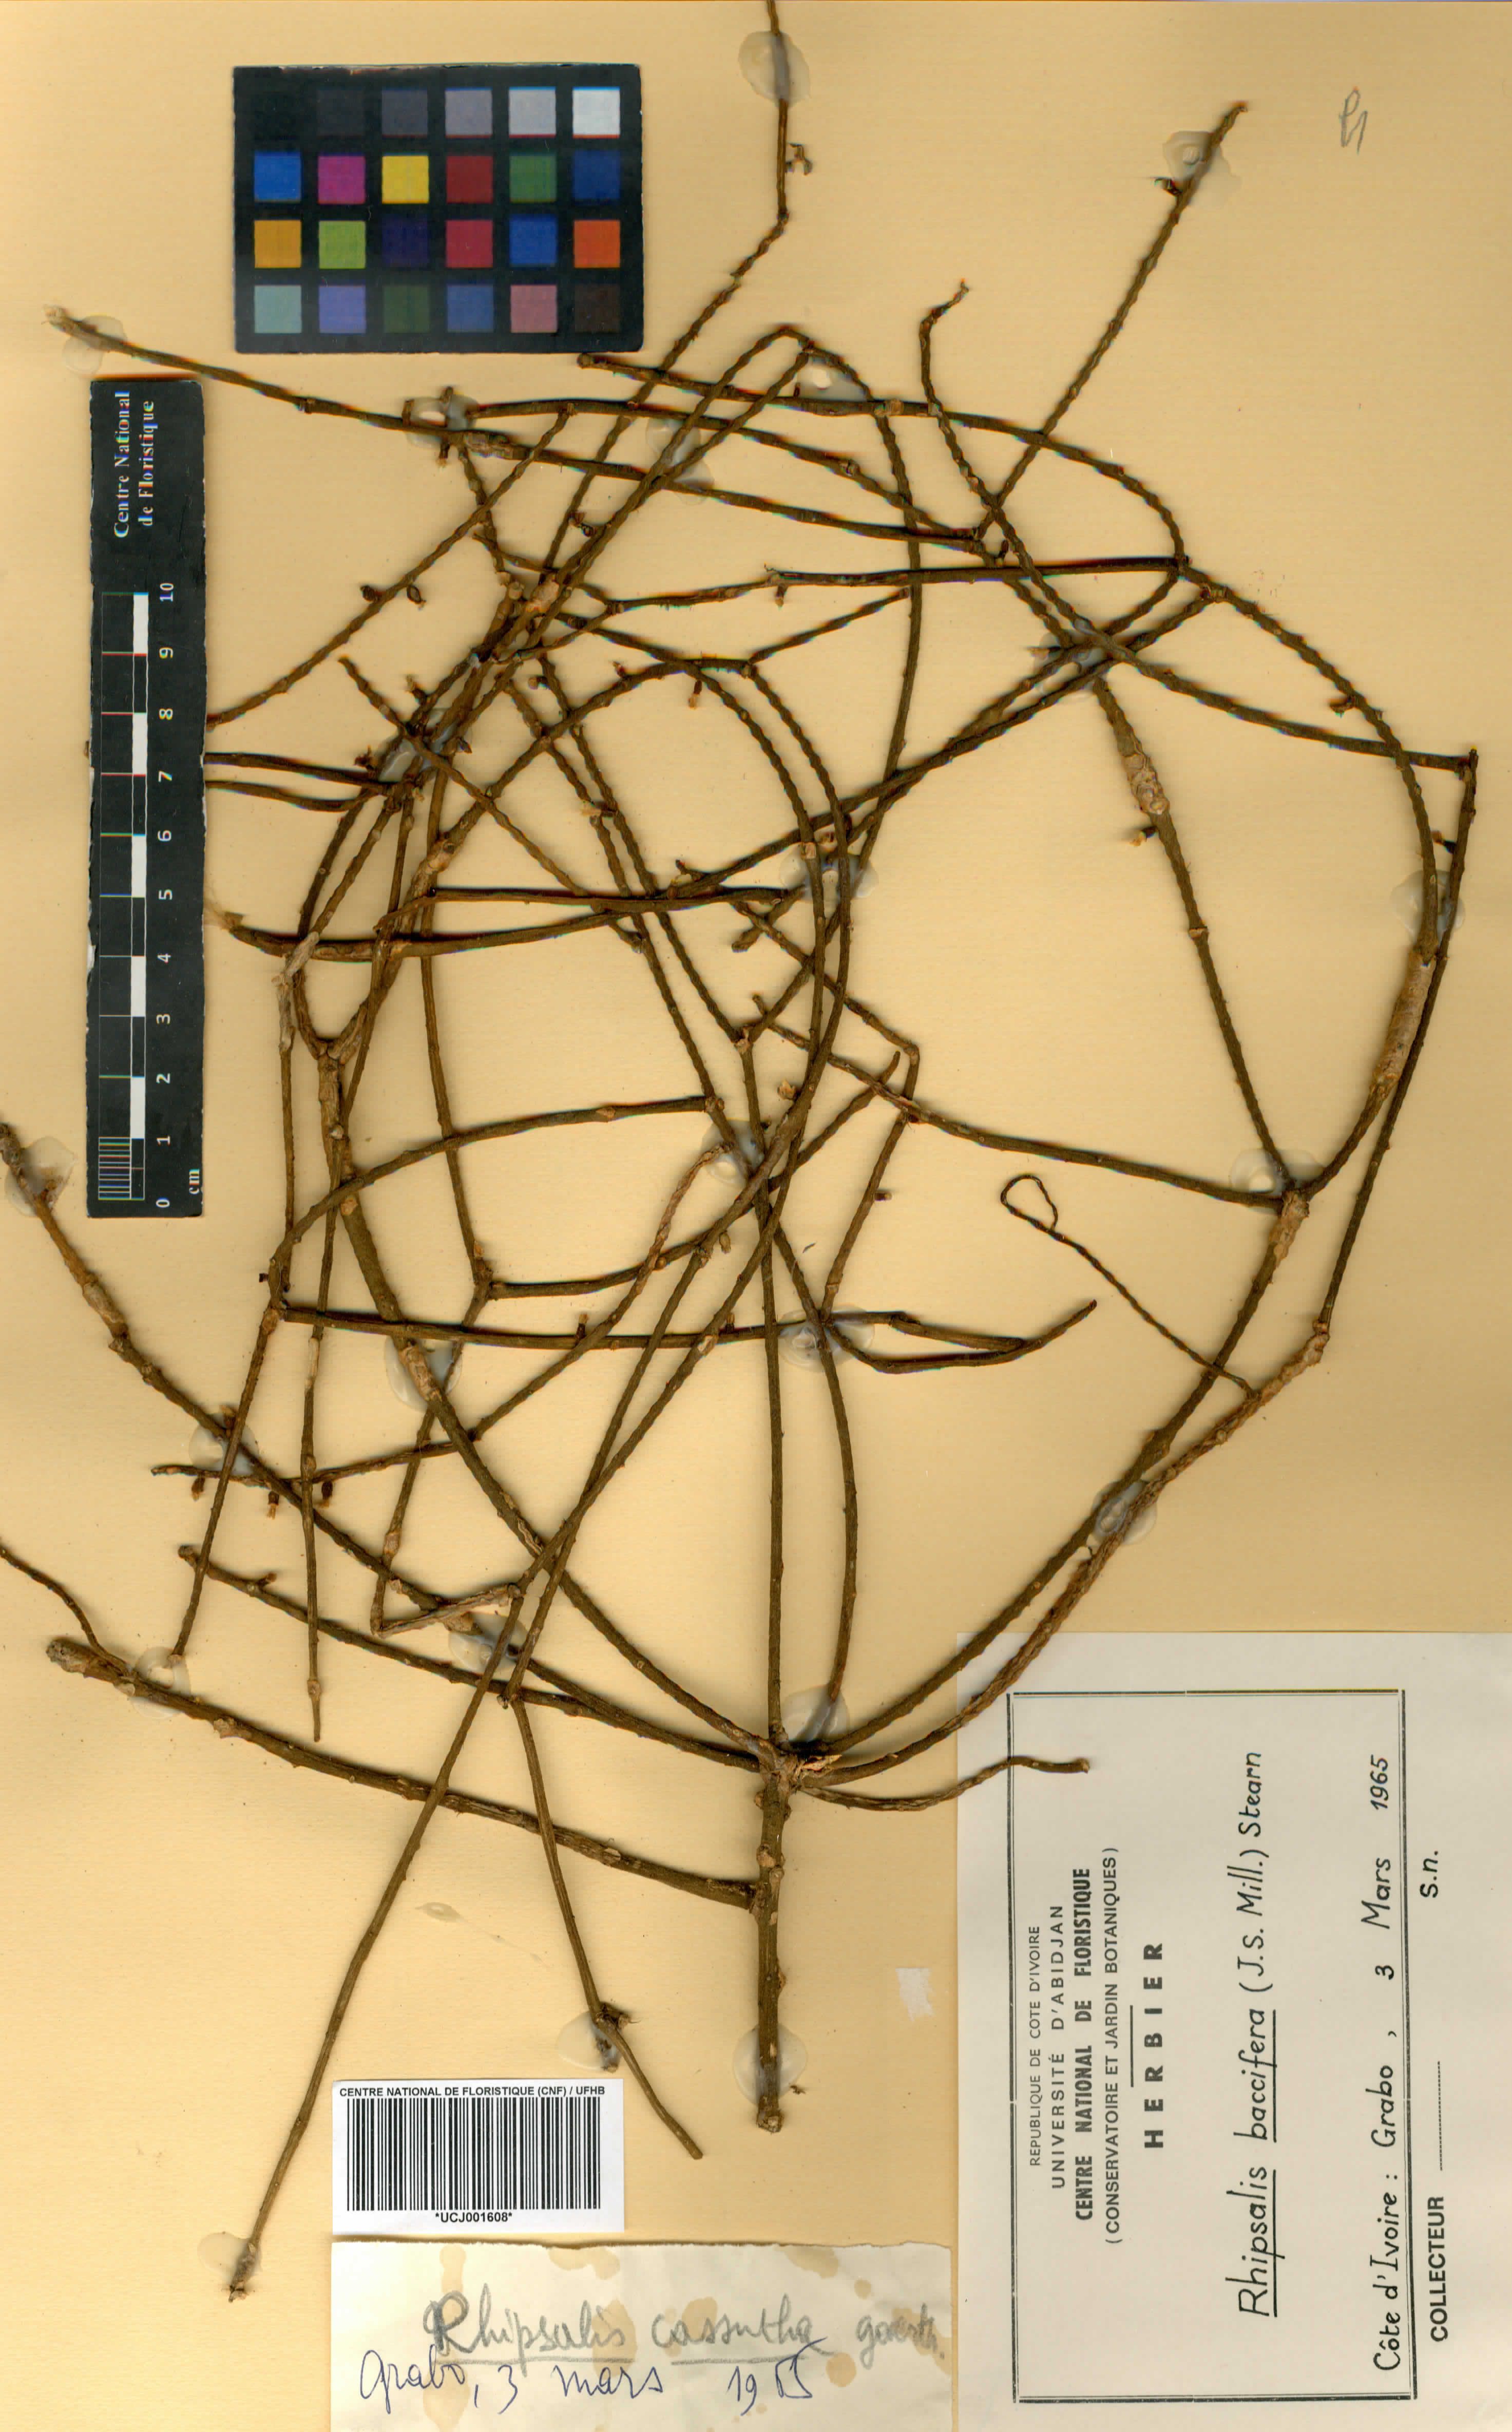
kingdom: Plantae
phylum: Tracheophyta
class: Magnoliopsida
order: Caryophyllales
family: Cactaceae
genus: Rhipsalis
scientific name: Rhipsalis baccifera
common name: Mistletoe cactus
